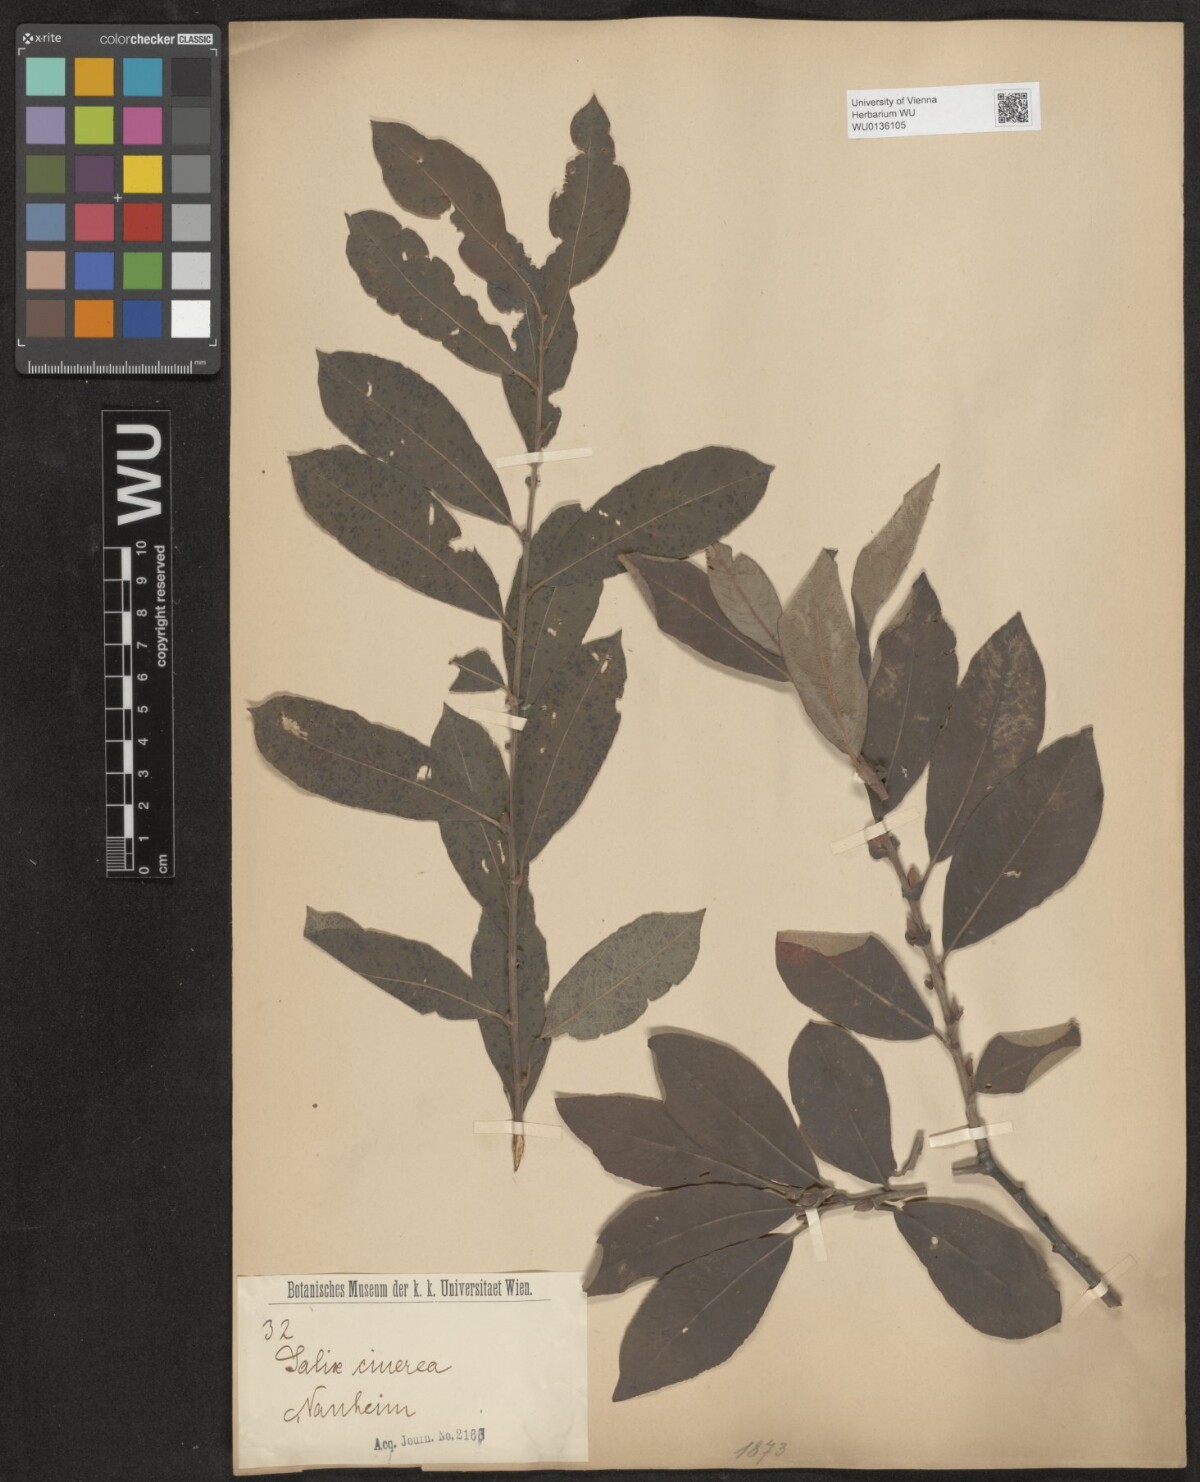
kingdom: Plantae
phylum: Tracheophyta
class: Magnoliopsida
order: Malpighiales
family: Salicaceae
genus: Salix
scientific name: Salix cinerea
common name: Common sallow
